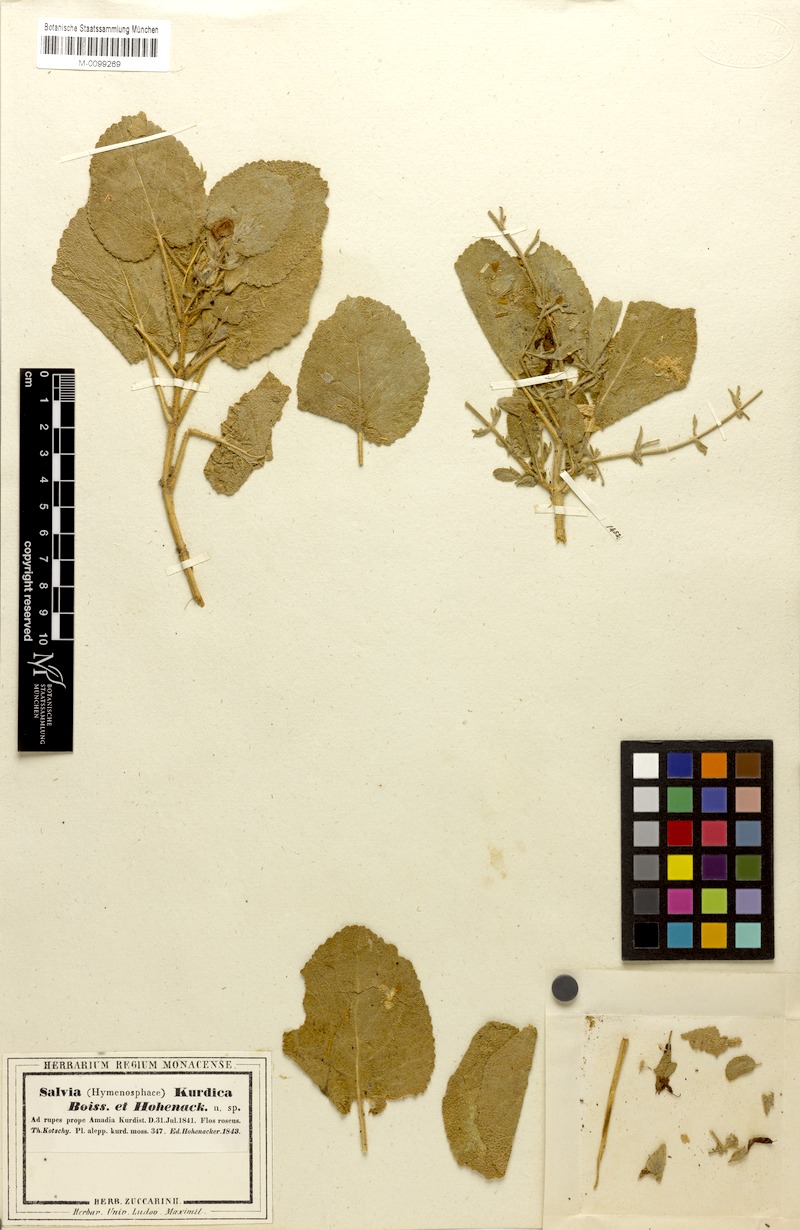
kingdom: Plantae
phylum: Tracheophyta
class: Magnoliopsida
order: Lamiales
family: Lamiaceae
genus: Salvia
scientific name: Salvia kurdica
